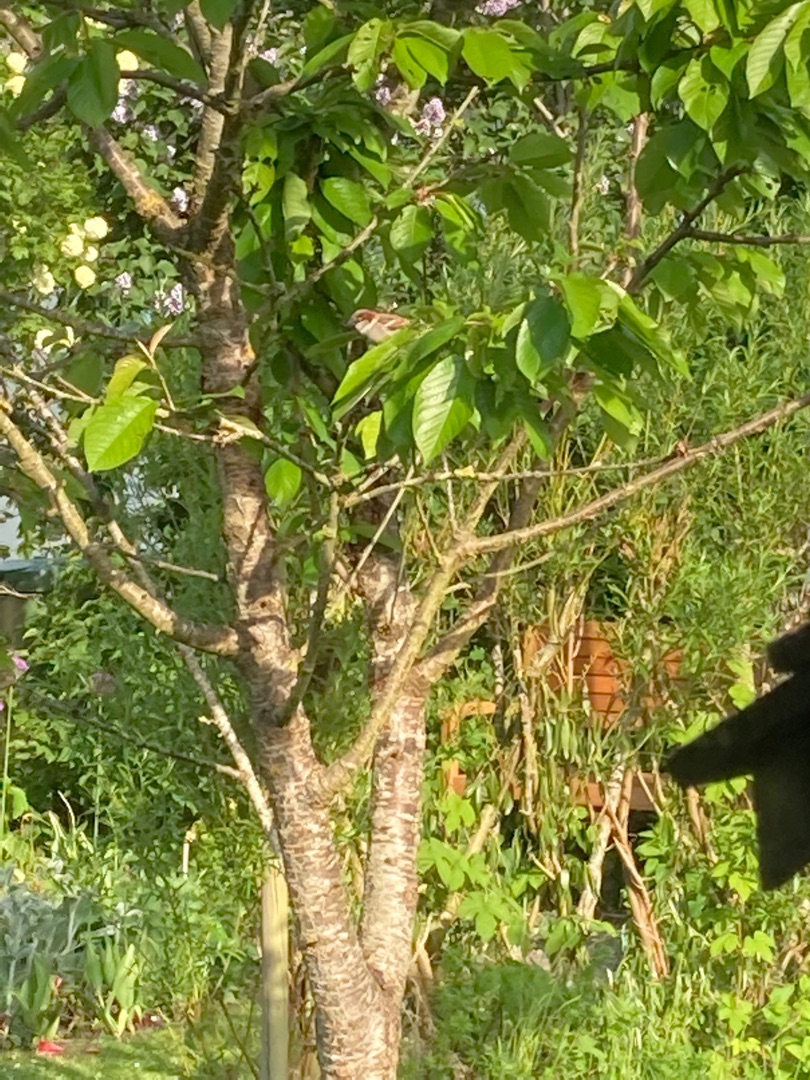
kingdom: Animalia
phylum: Chordata
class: Aves
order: Passeriformes
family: Passeridae
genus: Passer
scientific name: Passer domesticus
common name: Gråspurv
